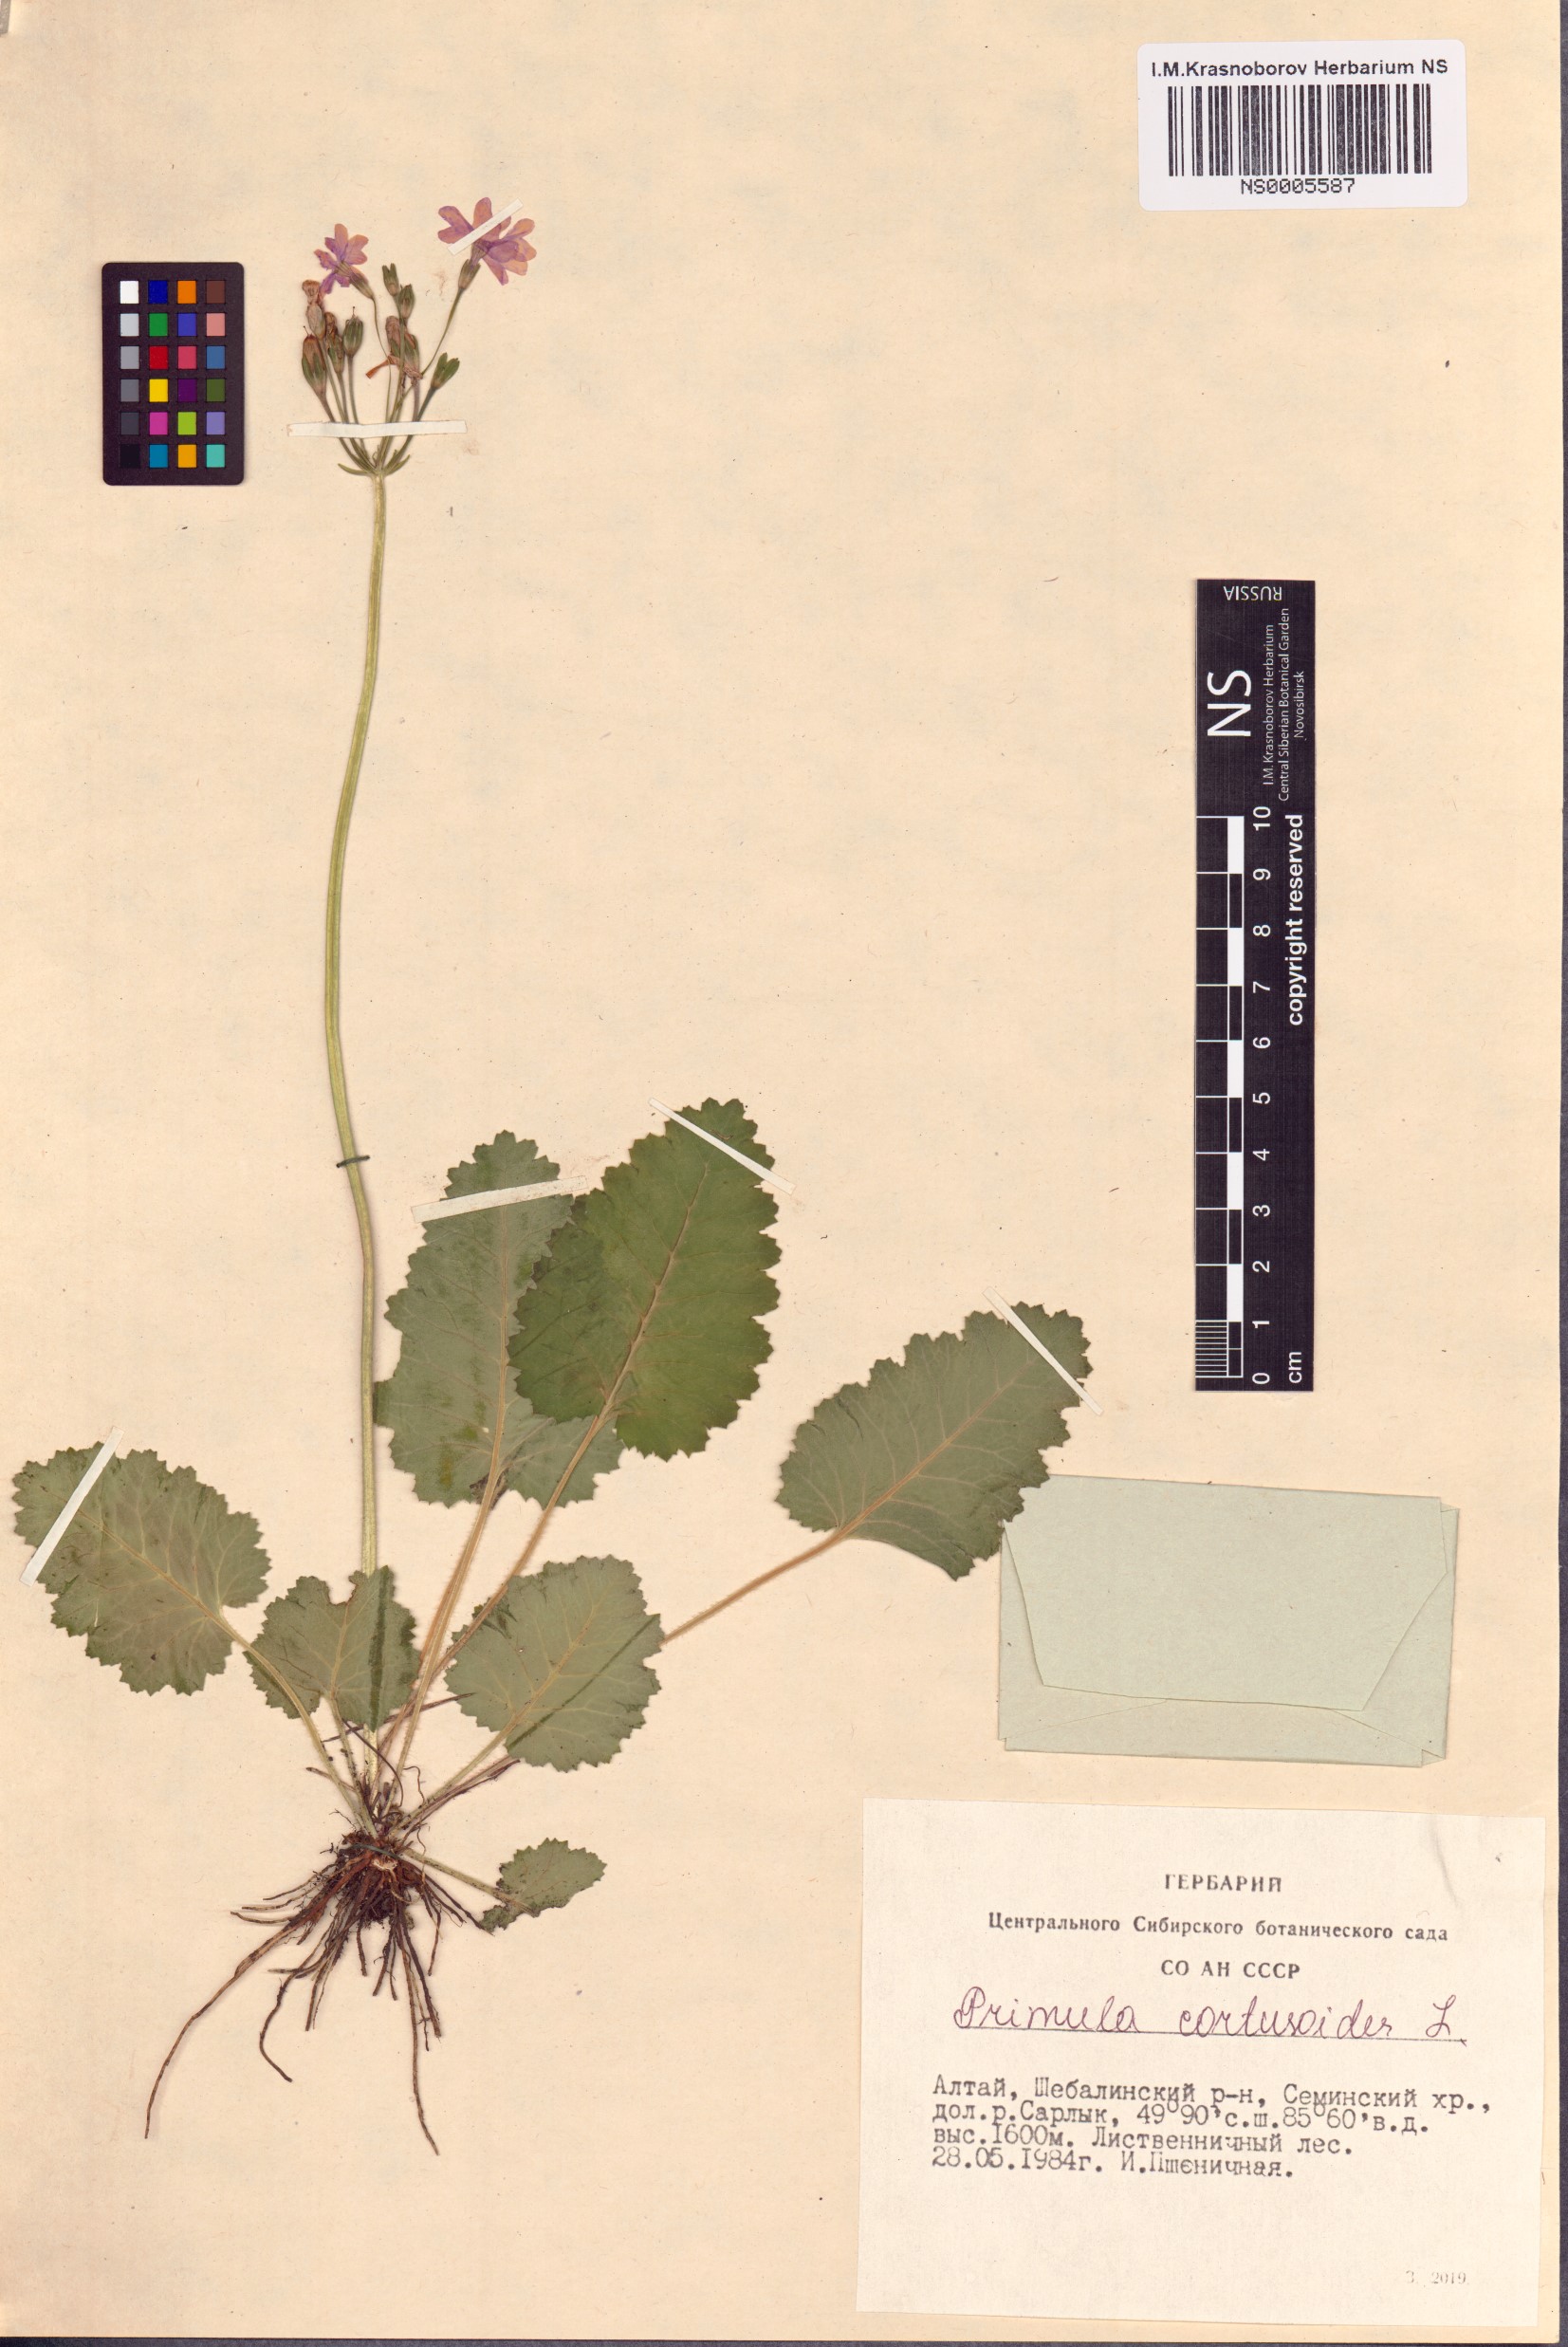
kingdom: Plantae
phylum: Tracheophyta
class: Magnoliopsida
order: Ericales
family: Primulaceae
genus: Primula
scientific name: Primula cortusoides
